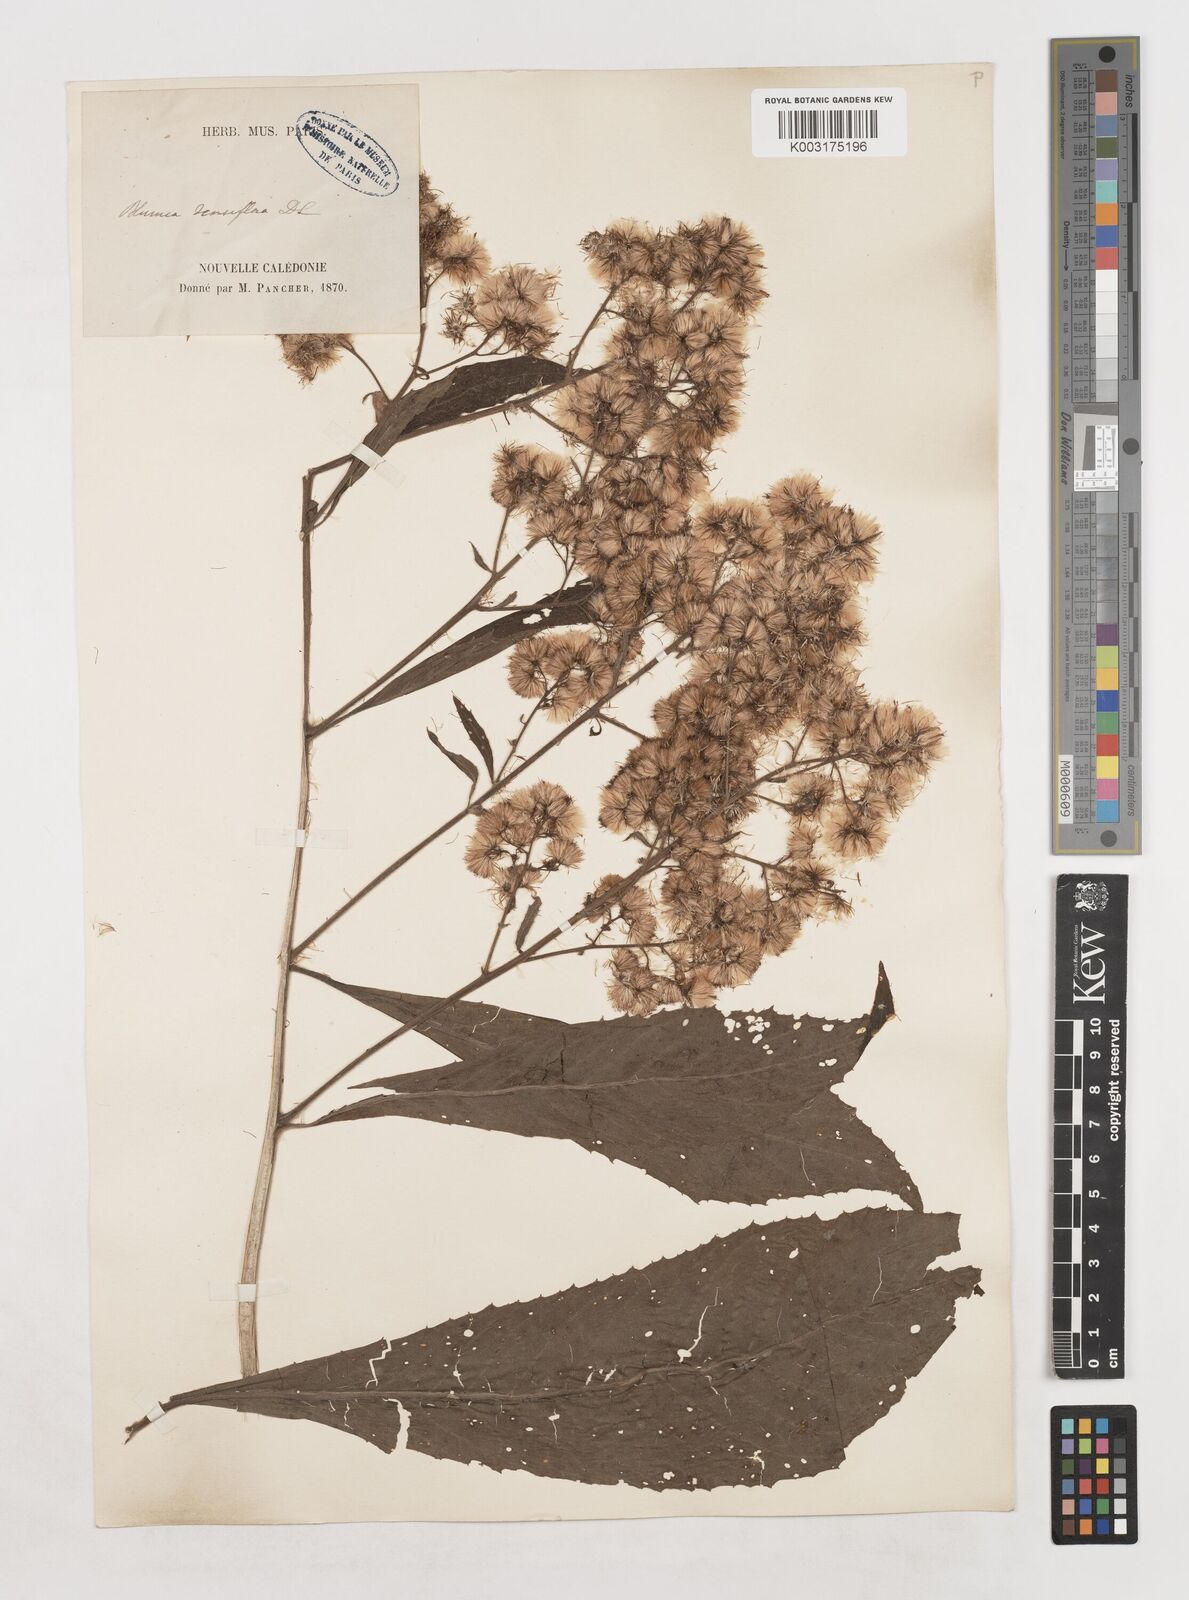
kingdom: Plantae
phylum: Tracheophyta
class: Magnoliopsida
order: Asterales
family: Asteraceae
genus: Blumea
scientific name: Blumea densiflora
